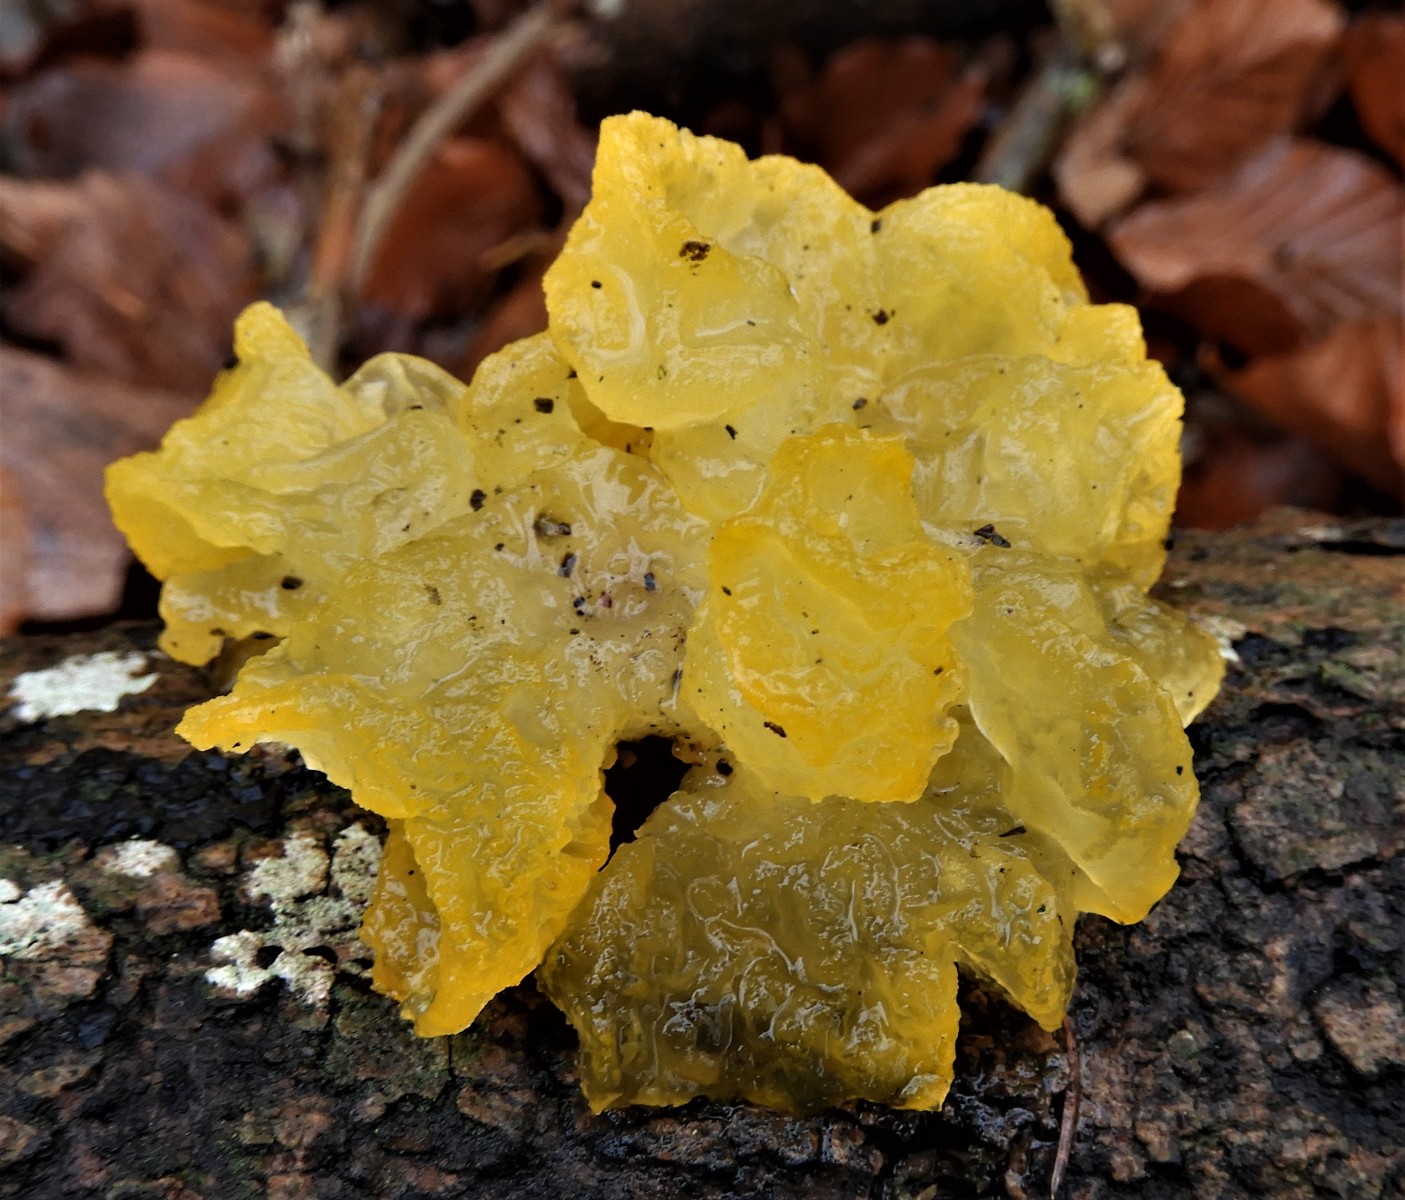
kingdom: Fungi
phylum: Basidiomycota
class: Tremellomycetes
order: Tremellales
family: Tremellaceae
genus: Tremella
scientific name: Tremella mesenterica
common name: gul bævresvamp
